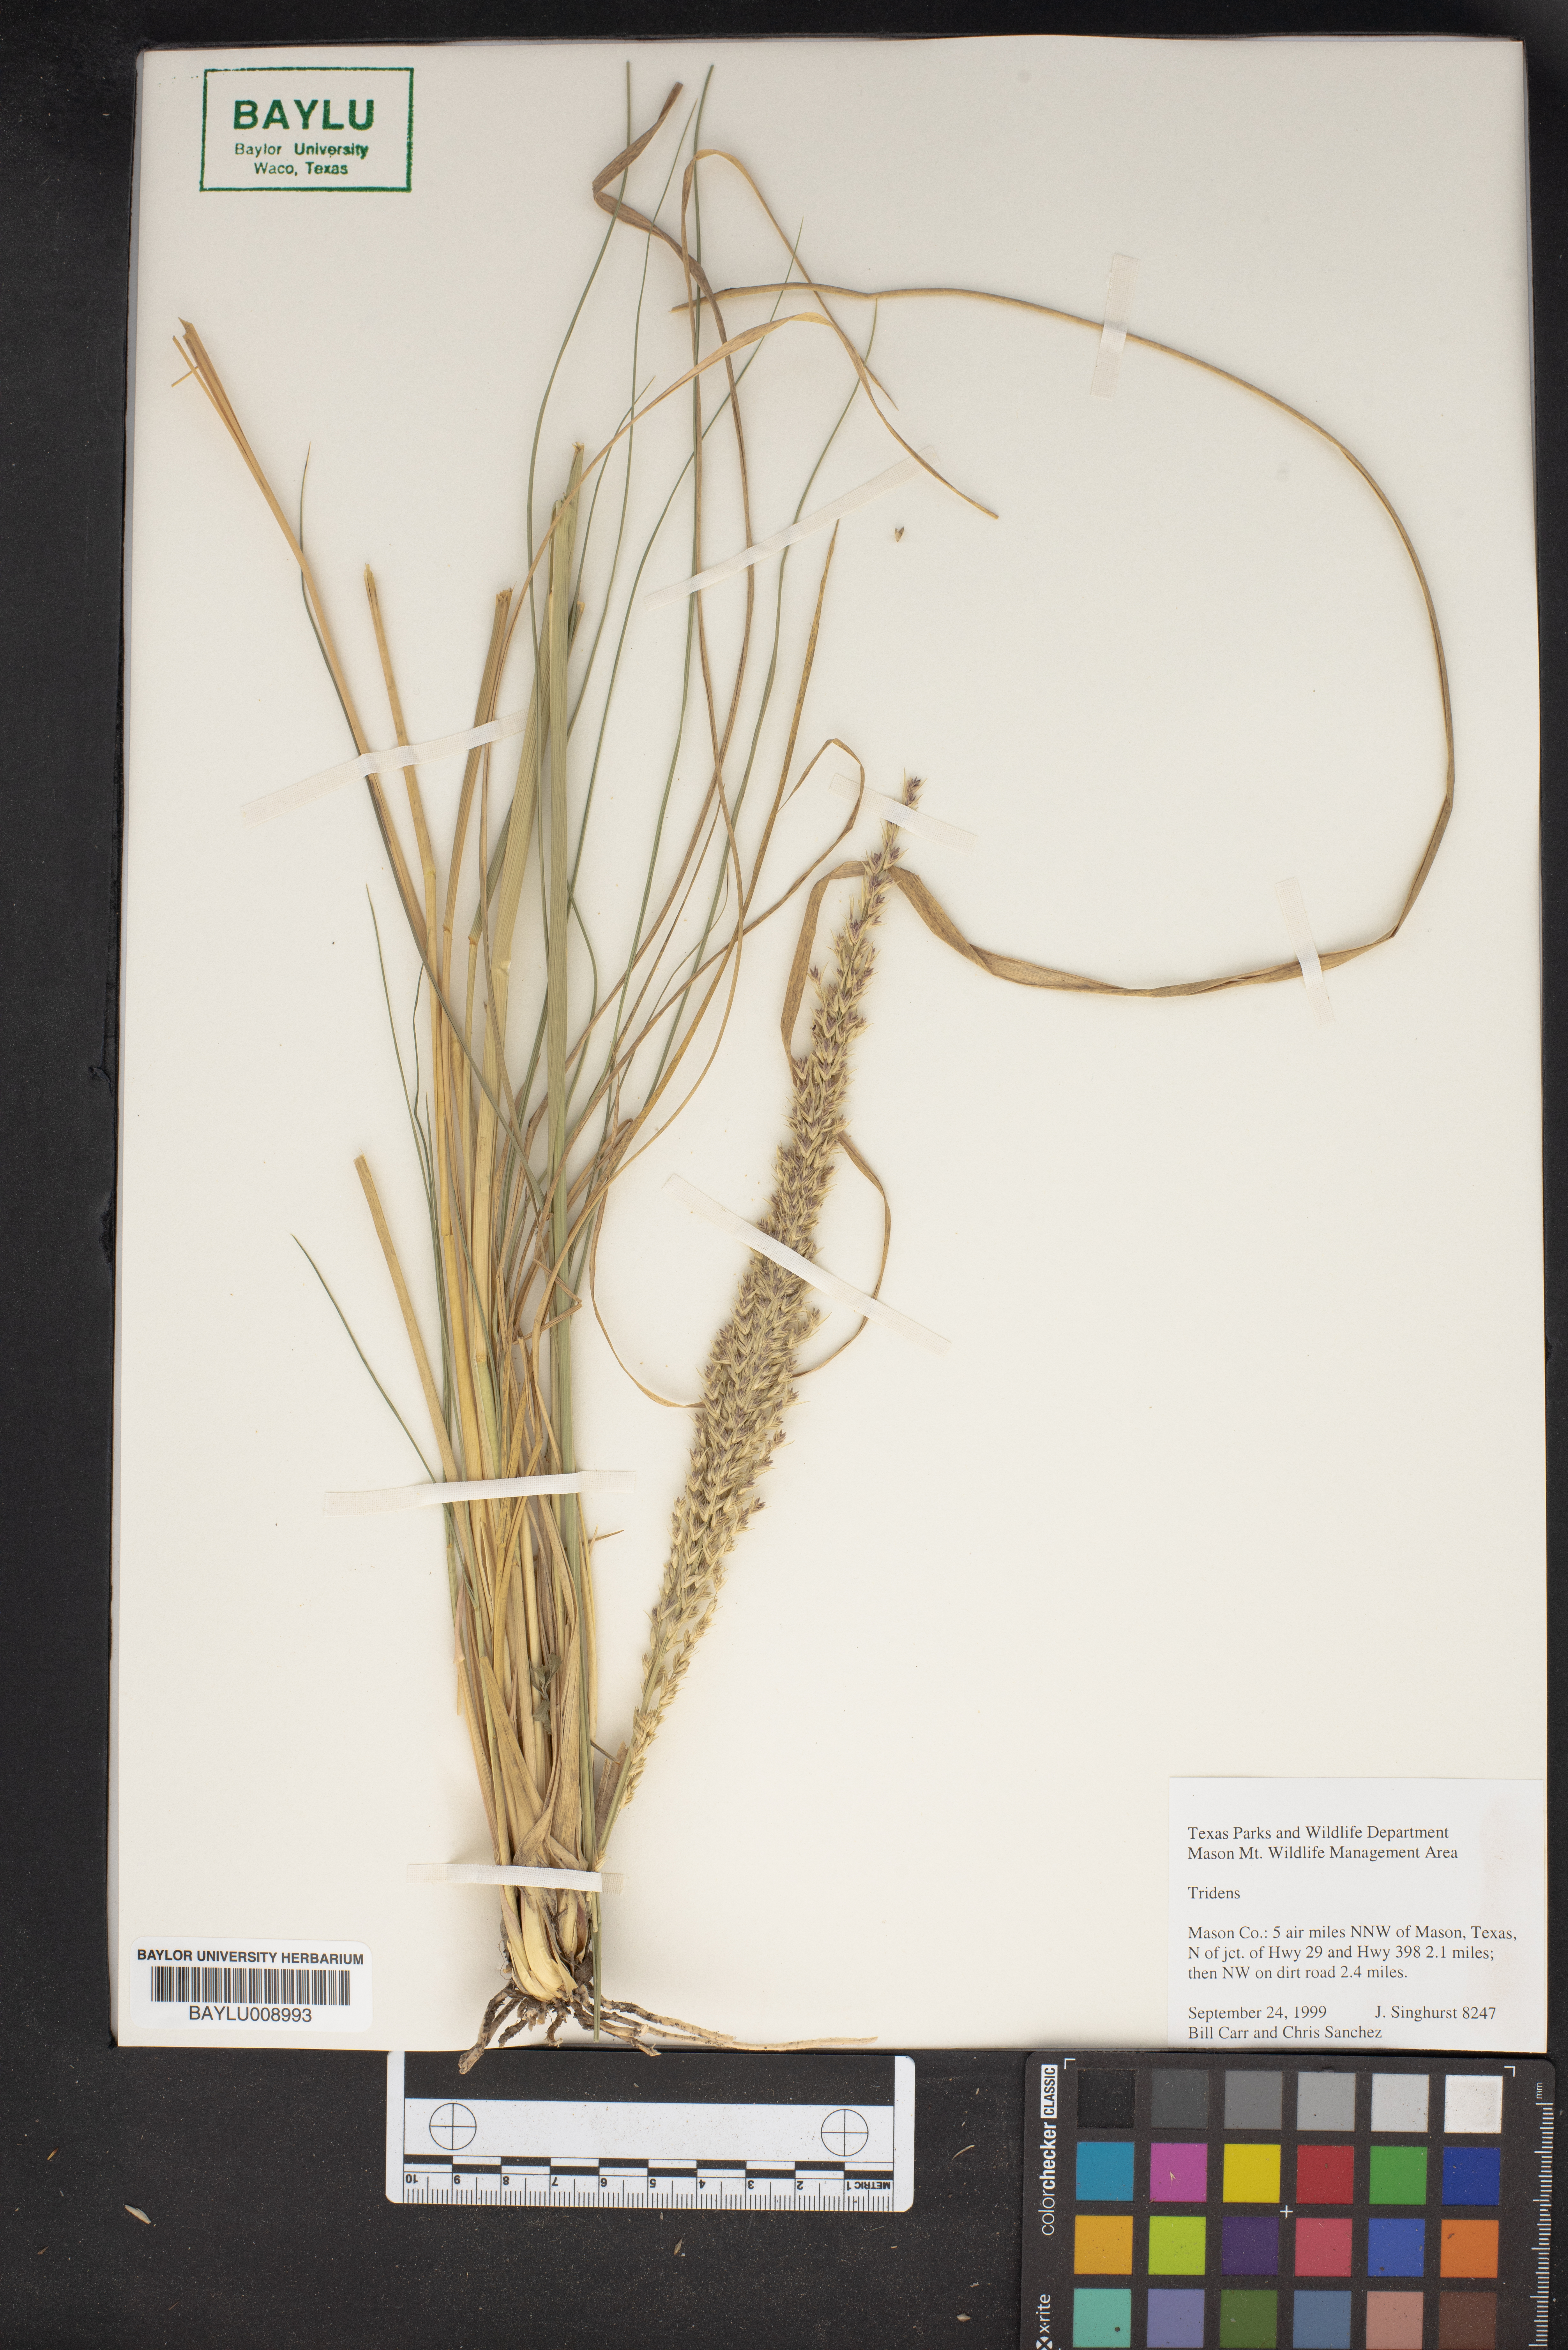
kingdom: Plantae
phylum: Tracheophyta
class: Liliopsida
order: Poales
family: Poaceae
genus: Tridens
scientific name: Tridens
